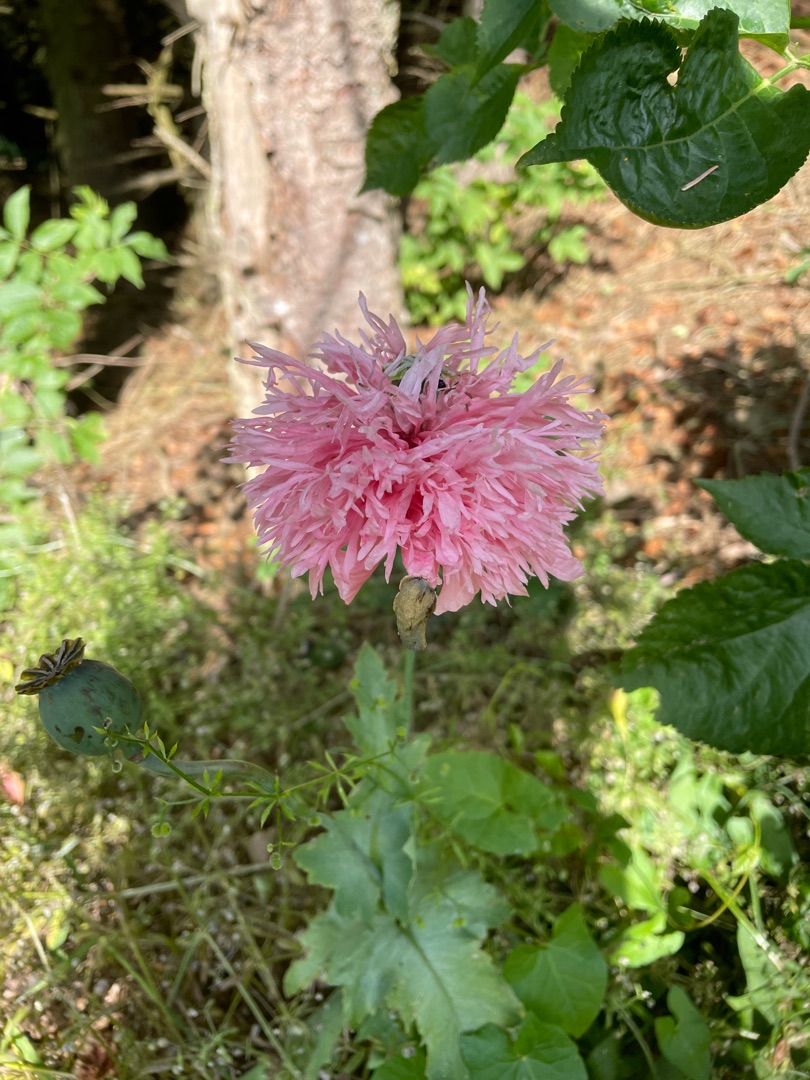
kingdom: Plantae
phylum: Tracheophyta
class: Magnoliopsida
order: Ranunculales
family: Papaveraceae
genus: Papaver
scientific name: Papaver somniferum
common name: Opium-valmue
